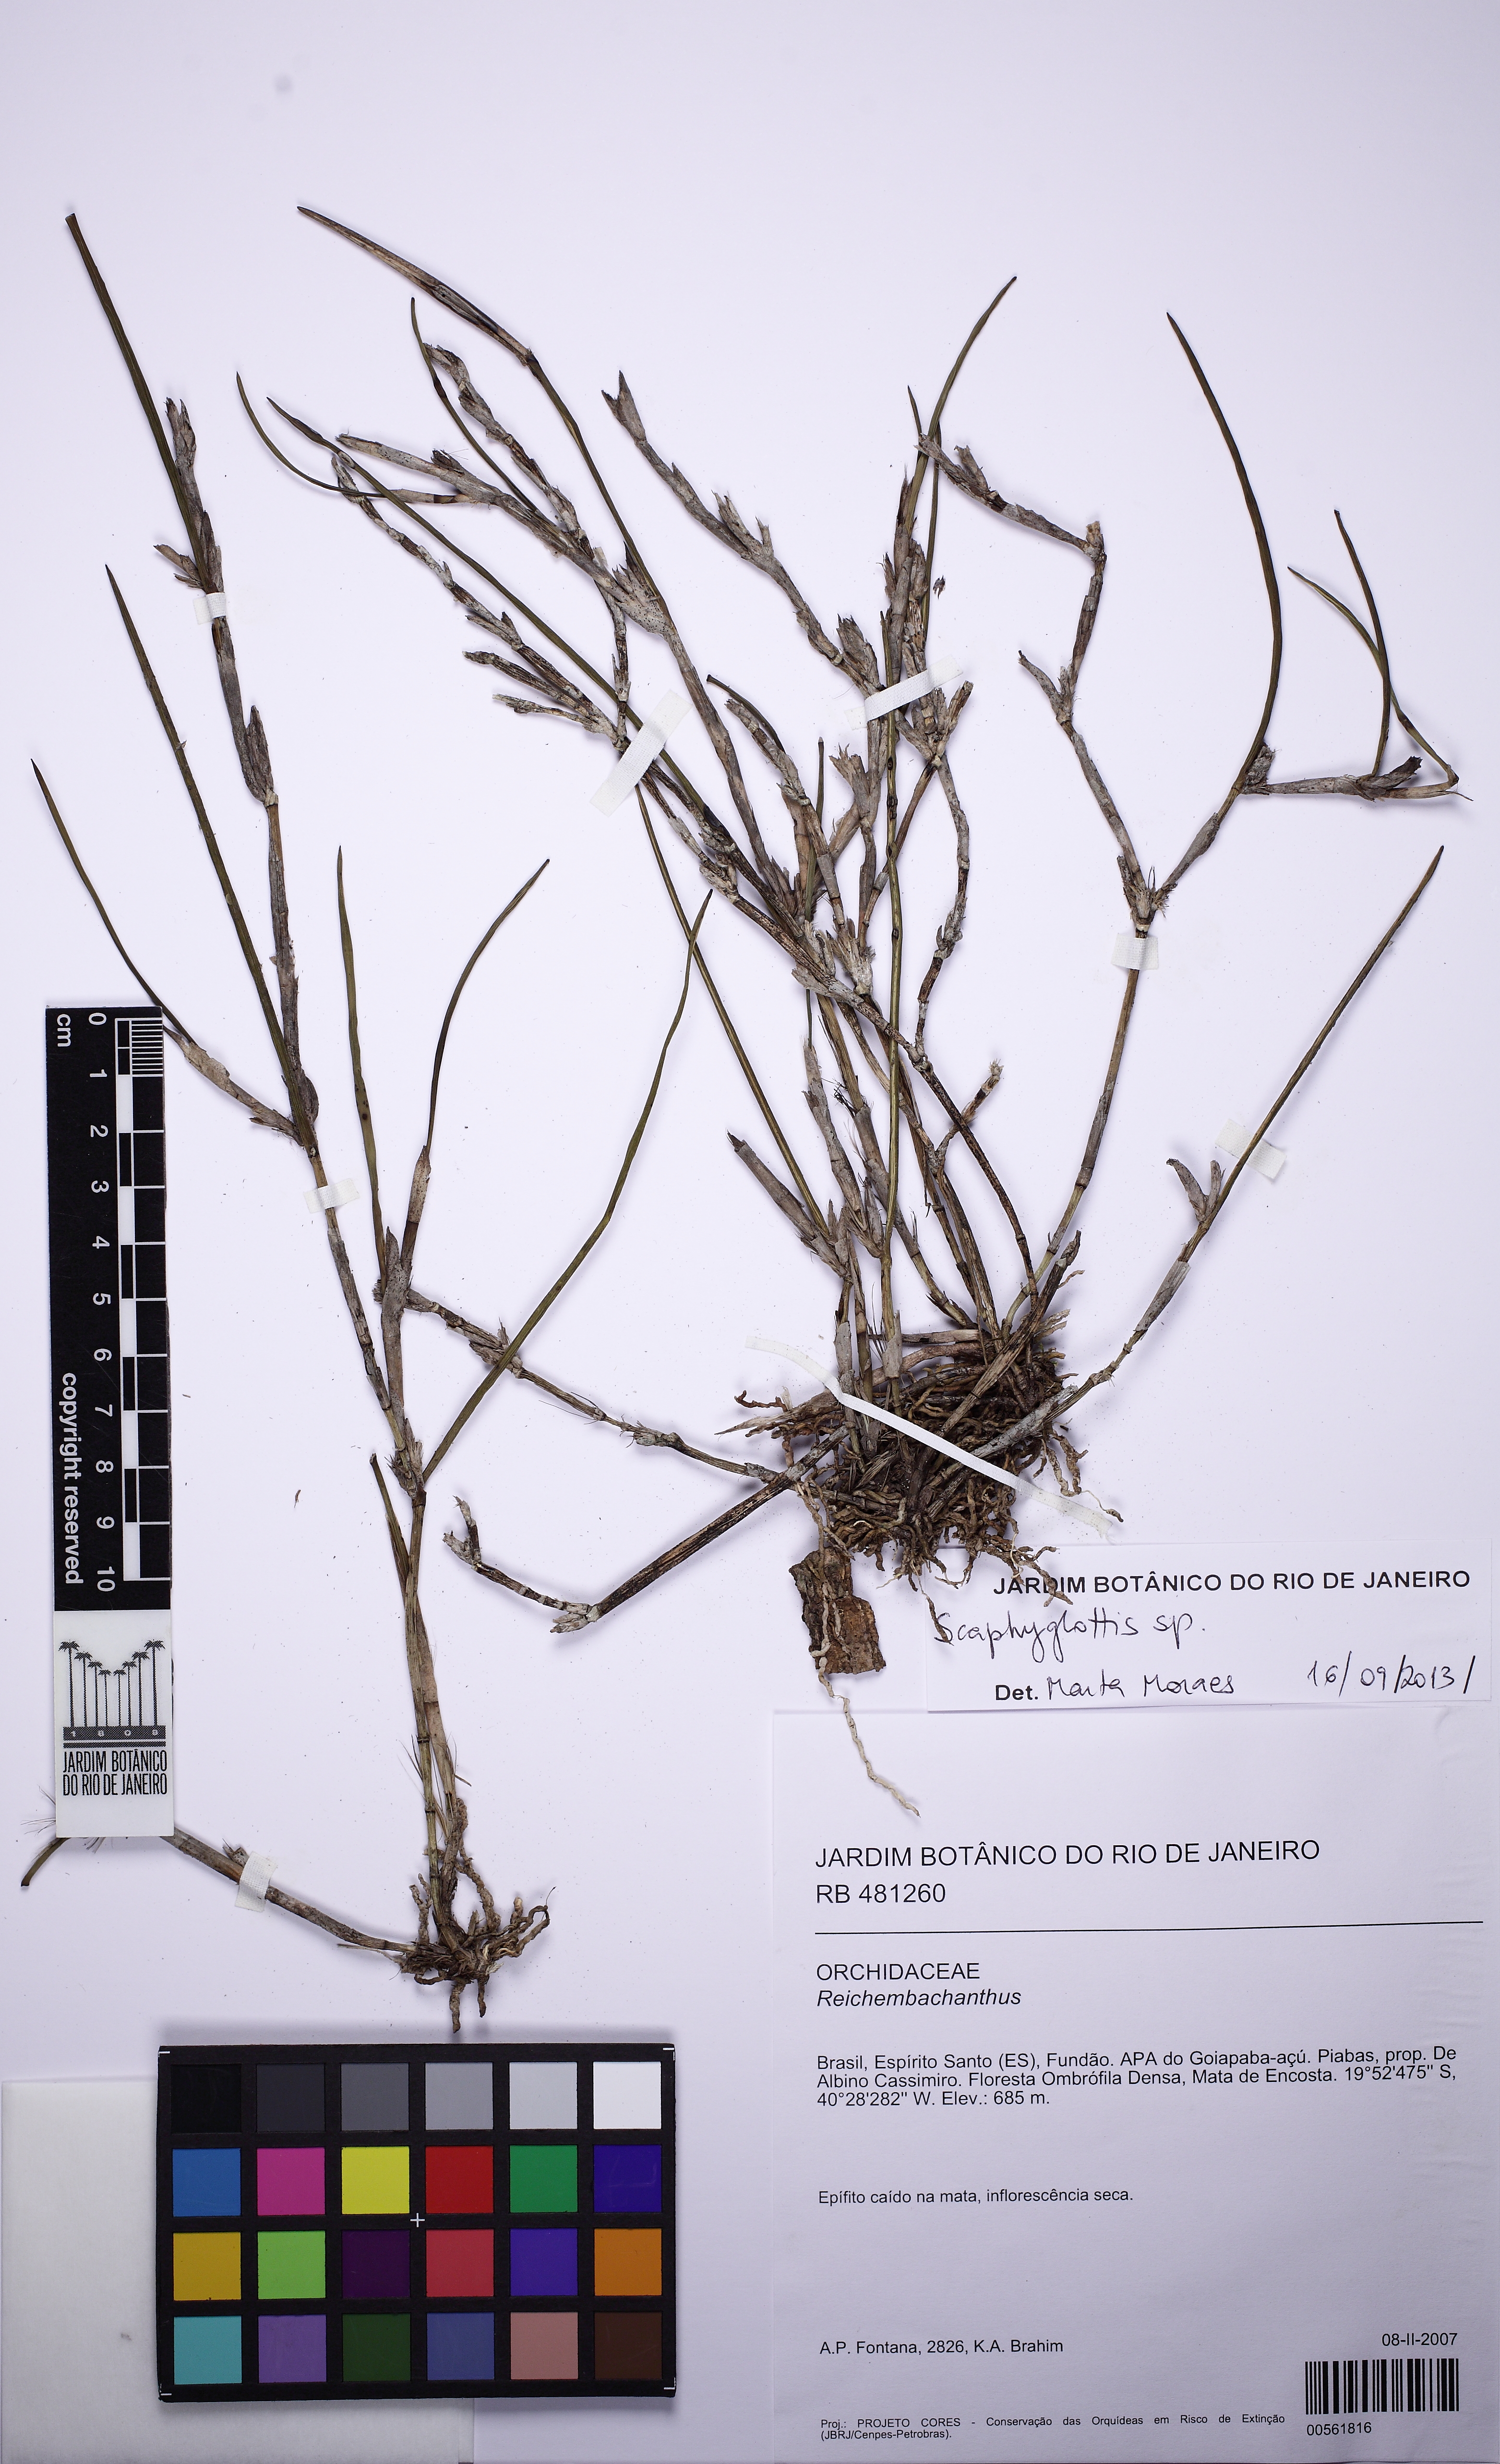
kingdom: Plantae
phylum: Tracheophyta
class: Liliopsida
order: Asparagales
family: Orchidaceae
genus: Scaphyglottis
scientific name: Scaphyglottis
